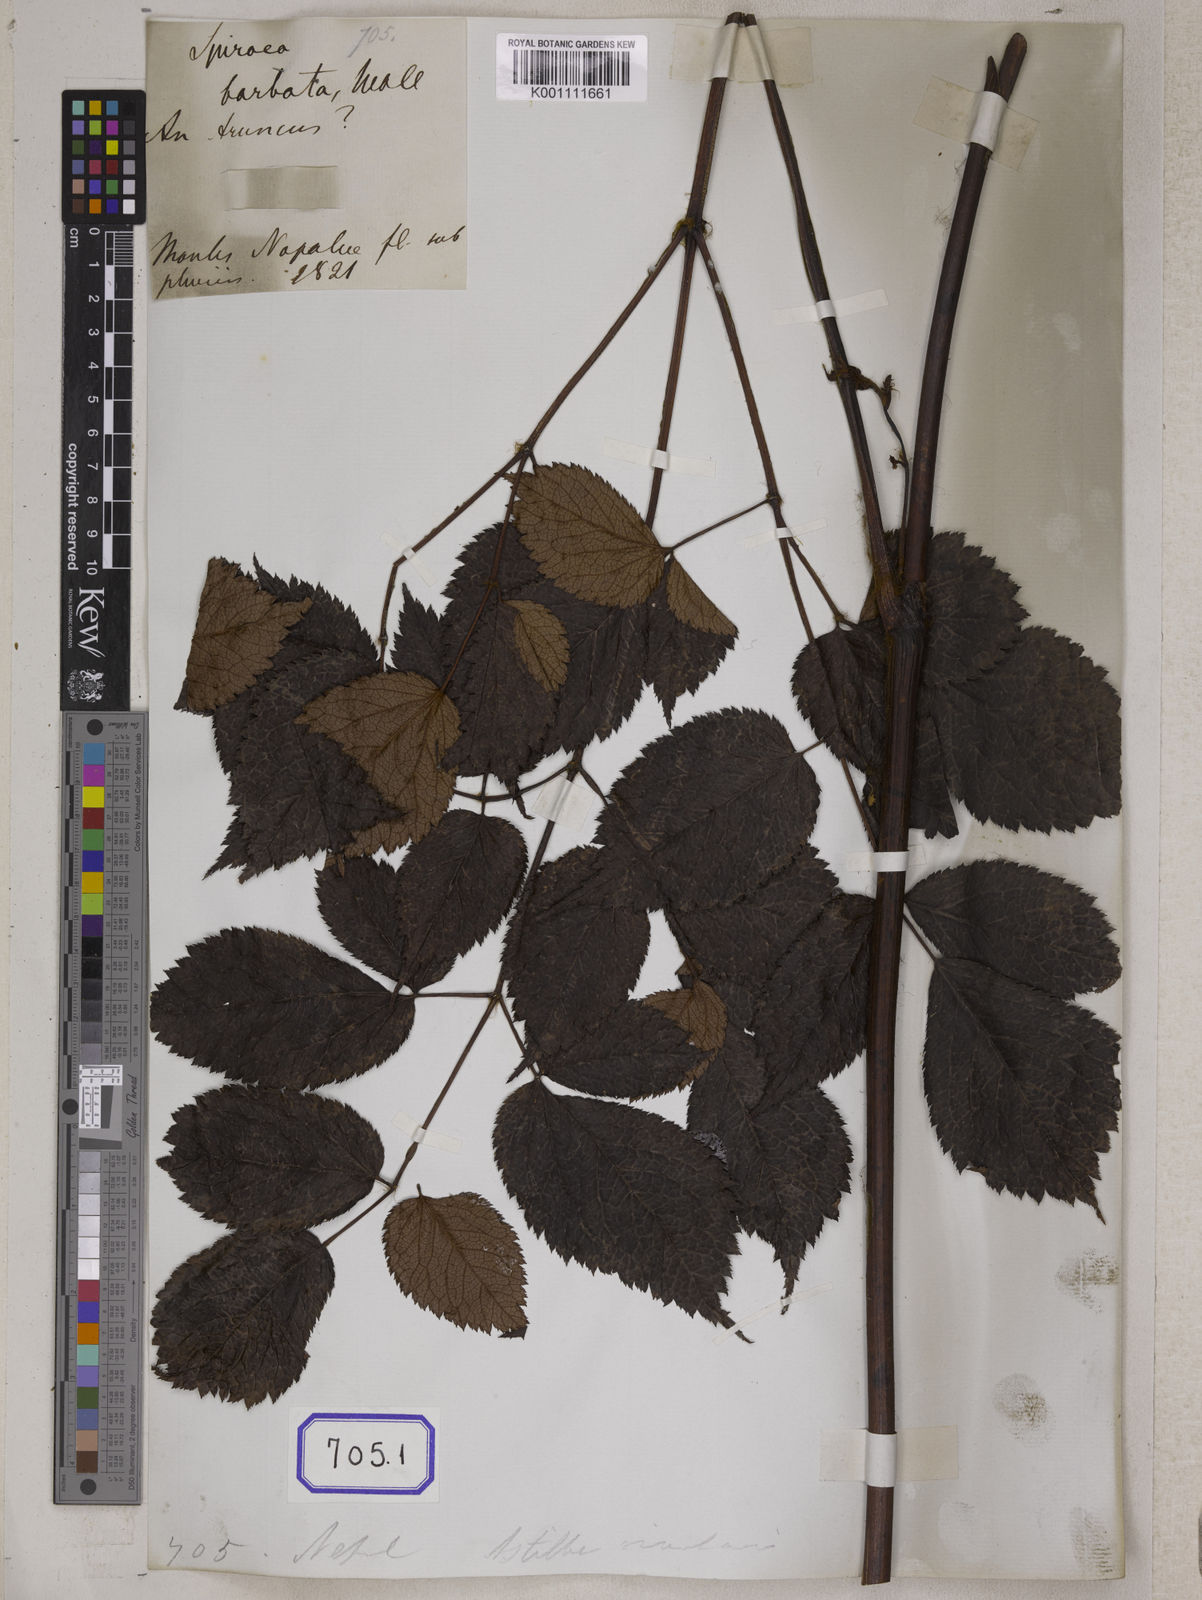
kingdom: Plantae
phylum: Tracheophyta
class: Magnoliopsida
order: Rosales
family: Rosaceae
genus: Spiraea
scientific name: Spiraea
